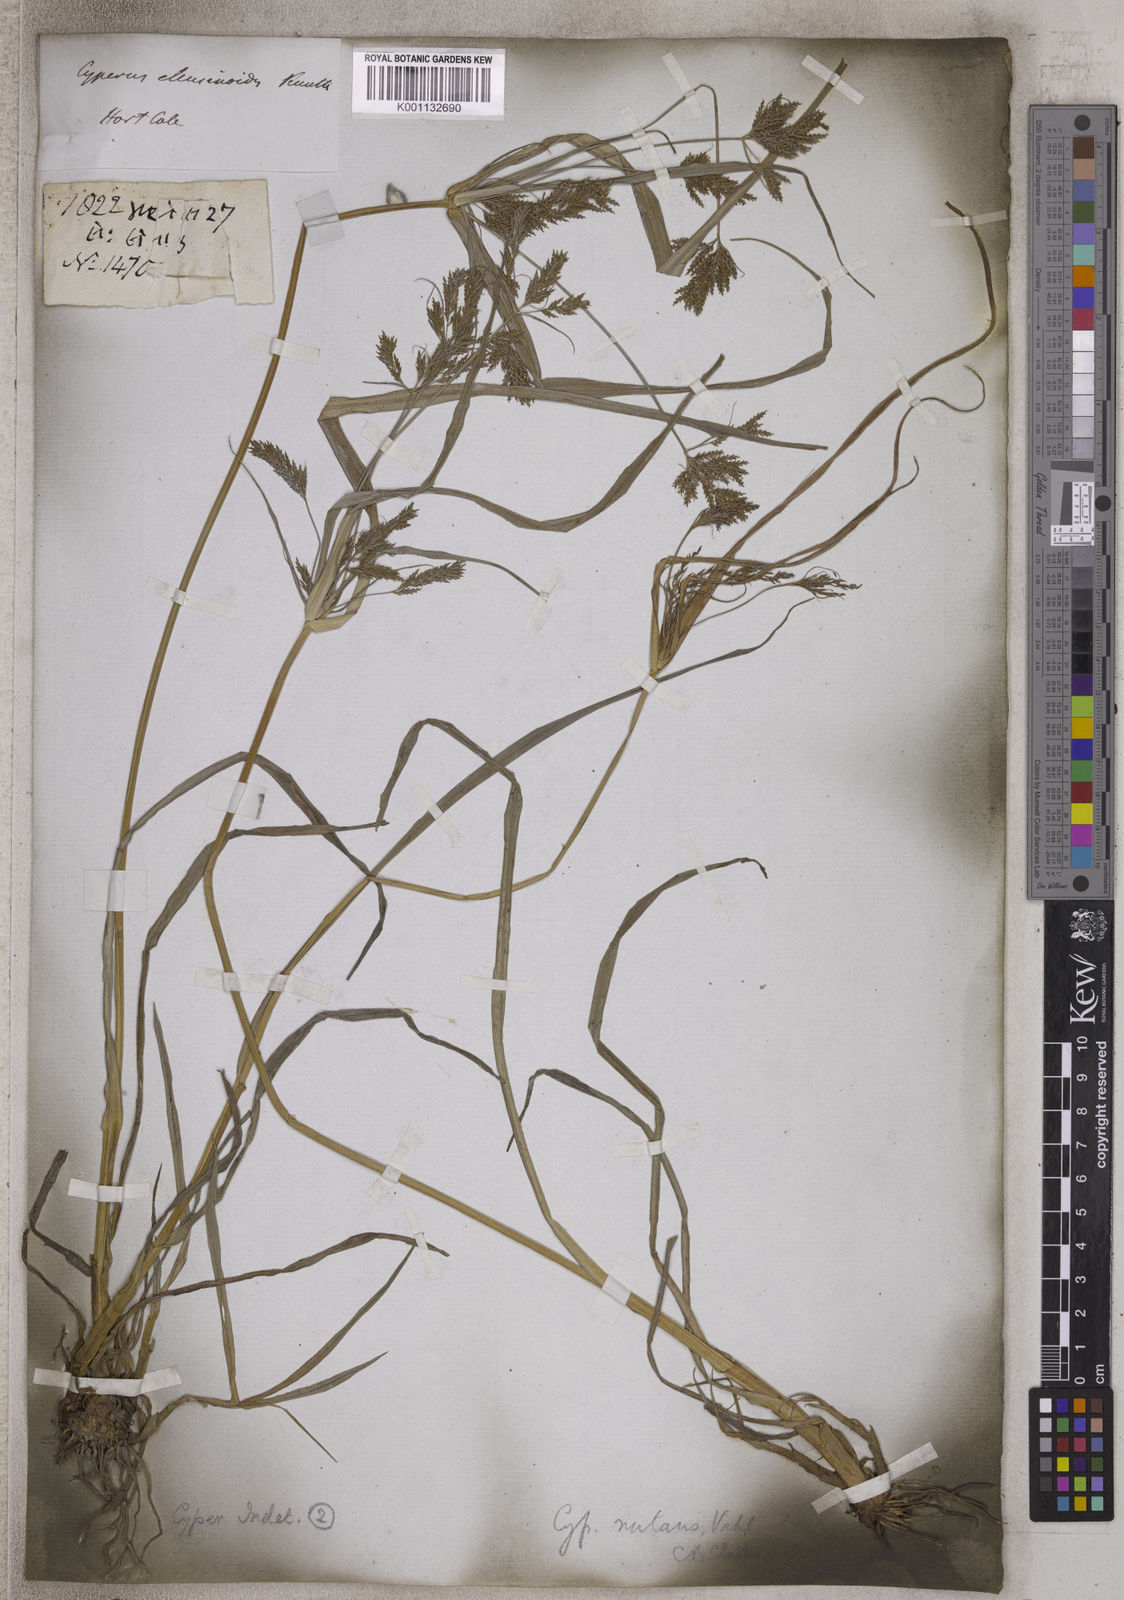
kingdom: Plantae
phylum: Tracheophyta
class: Liliopsida
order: Poales
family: Cyperaceae
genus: Cyperus
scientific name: Cyperus nutans
